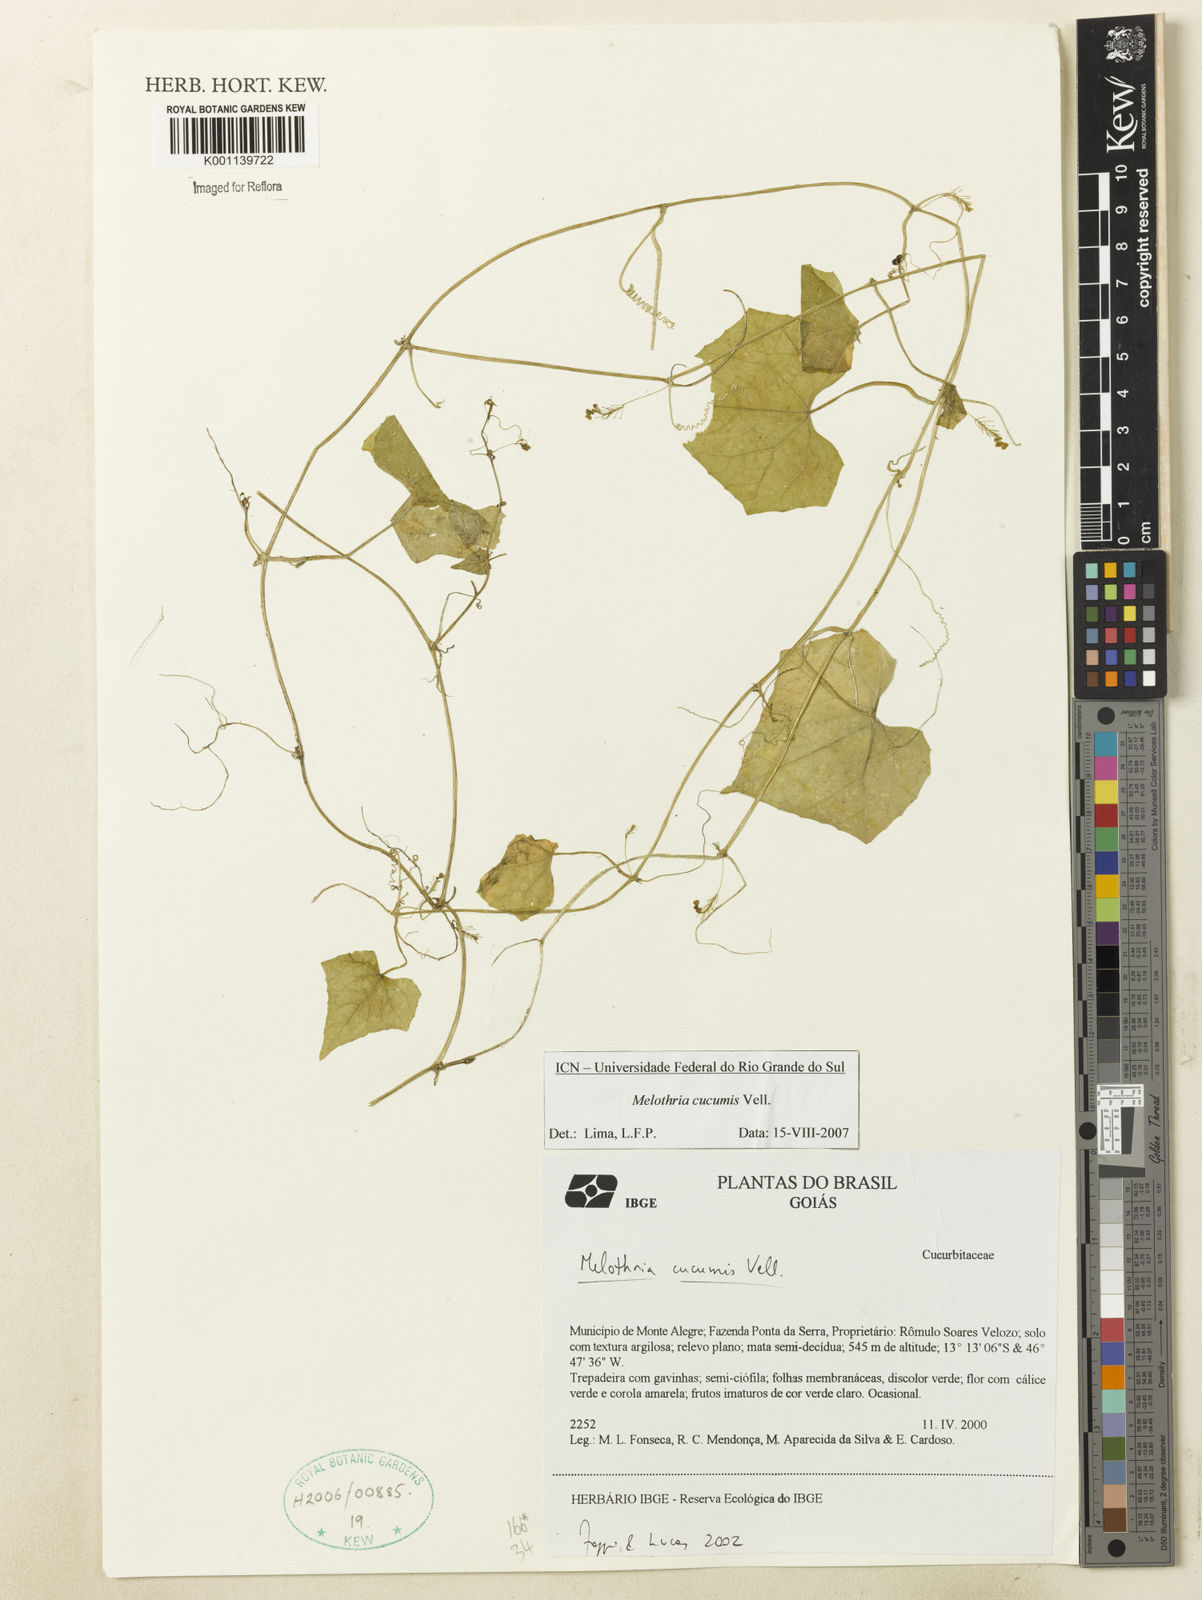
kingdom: Plantae
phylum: Tracheophyta
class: Magnoliopsida
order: Cucurbitales
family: Cucurbitaceae
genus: Melothria
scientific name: Melothria cucumis
